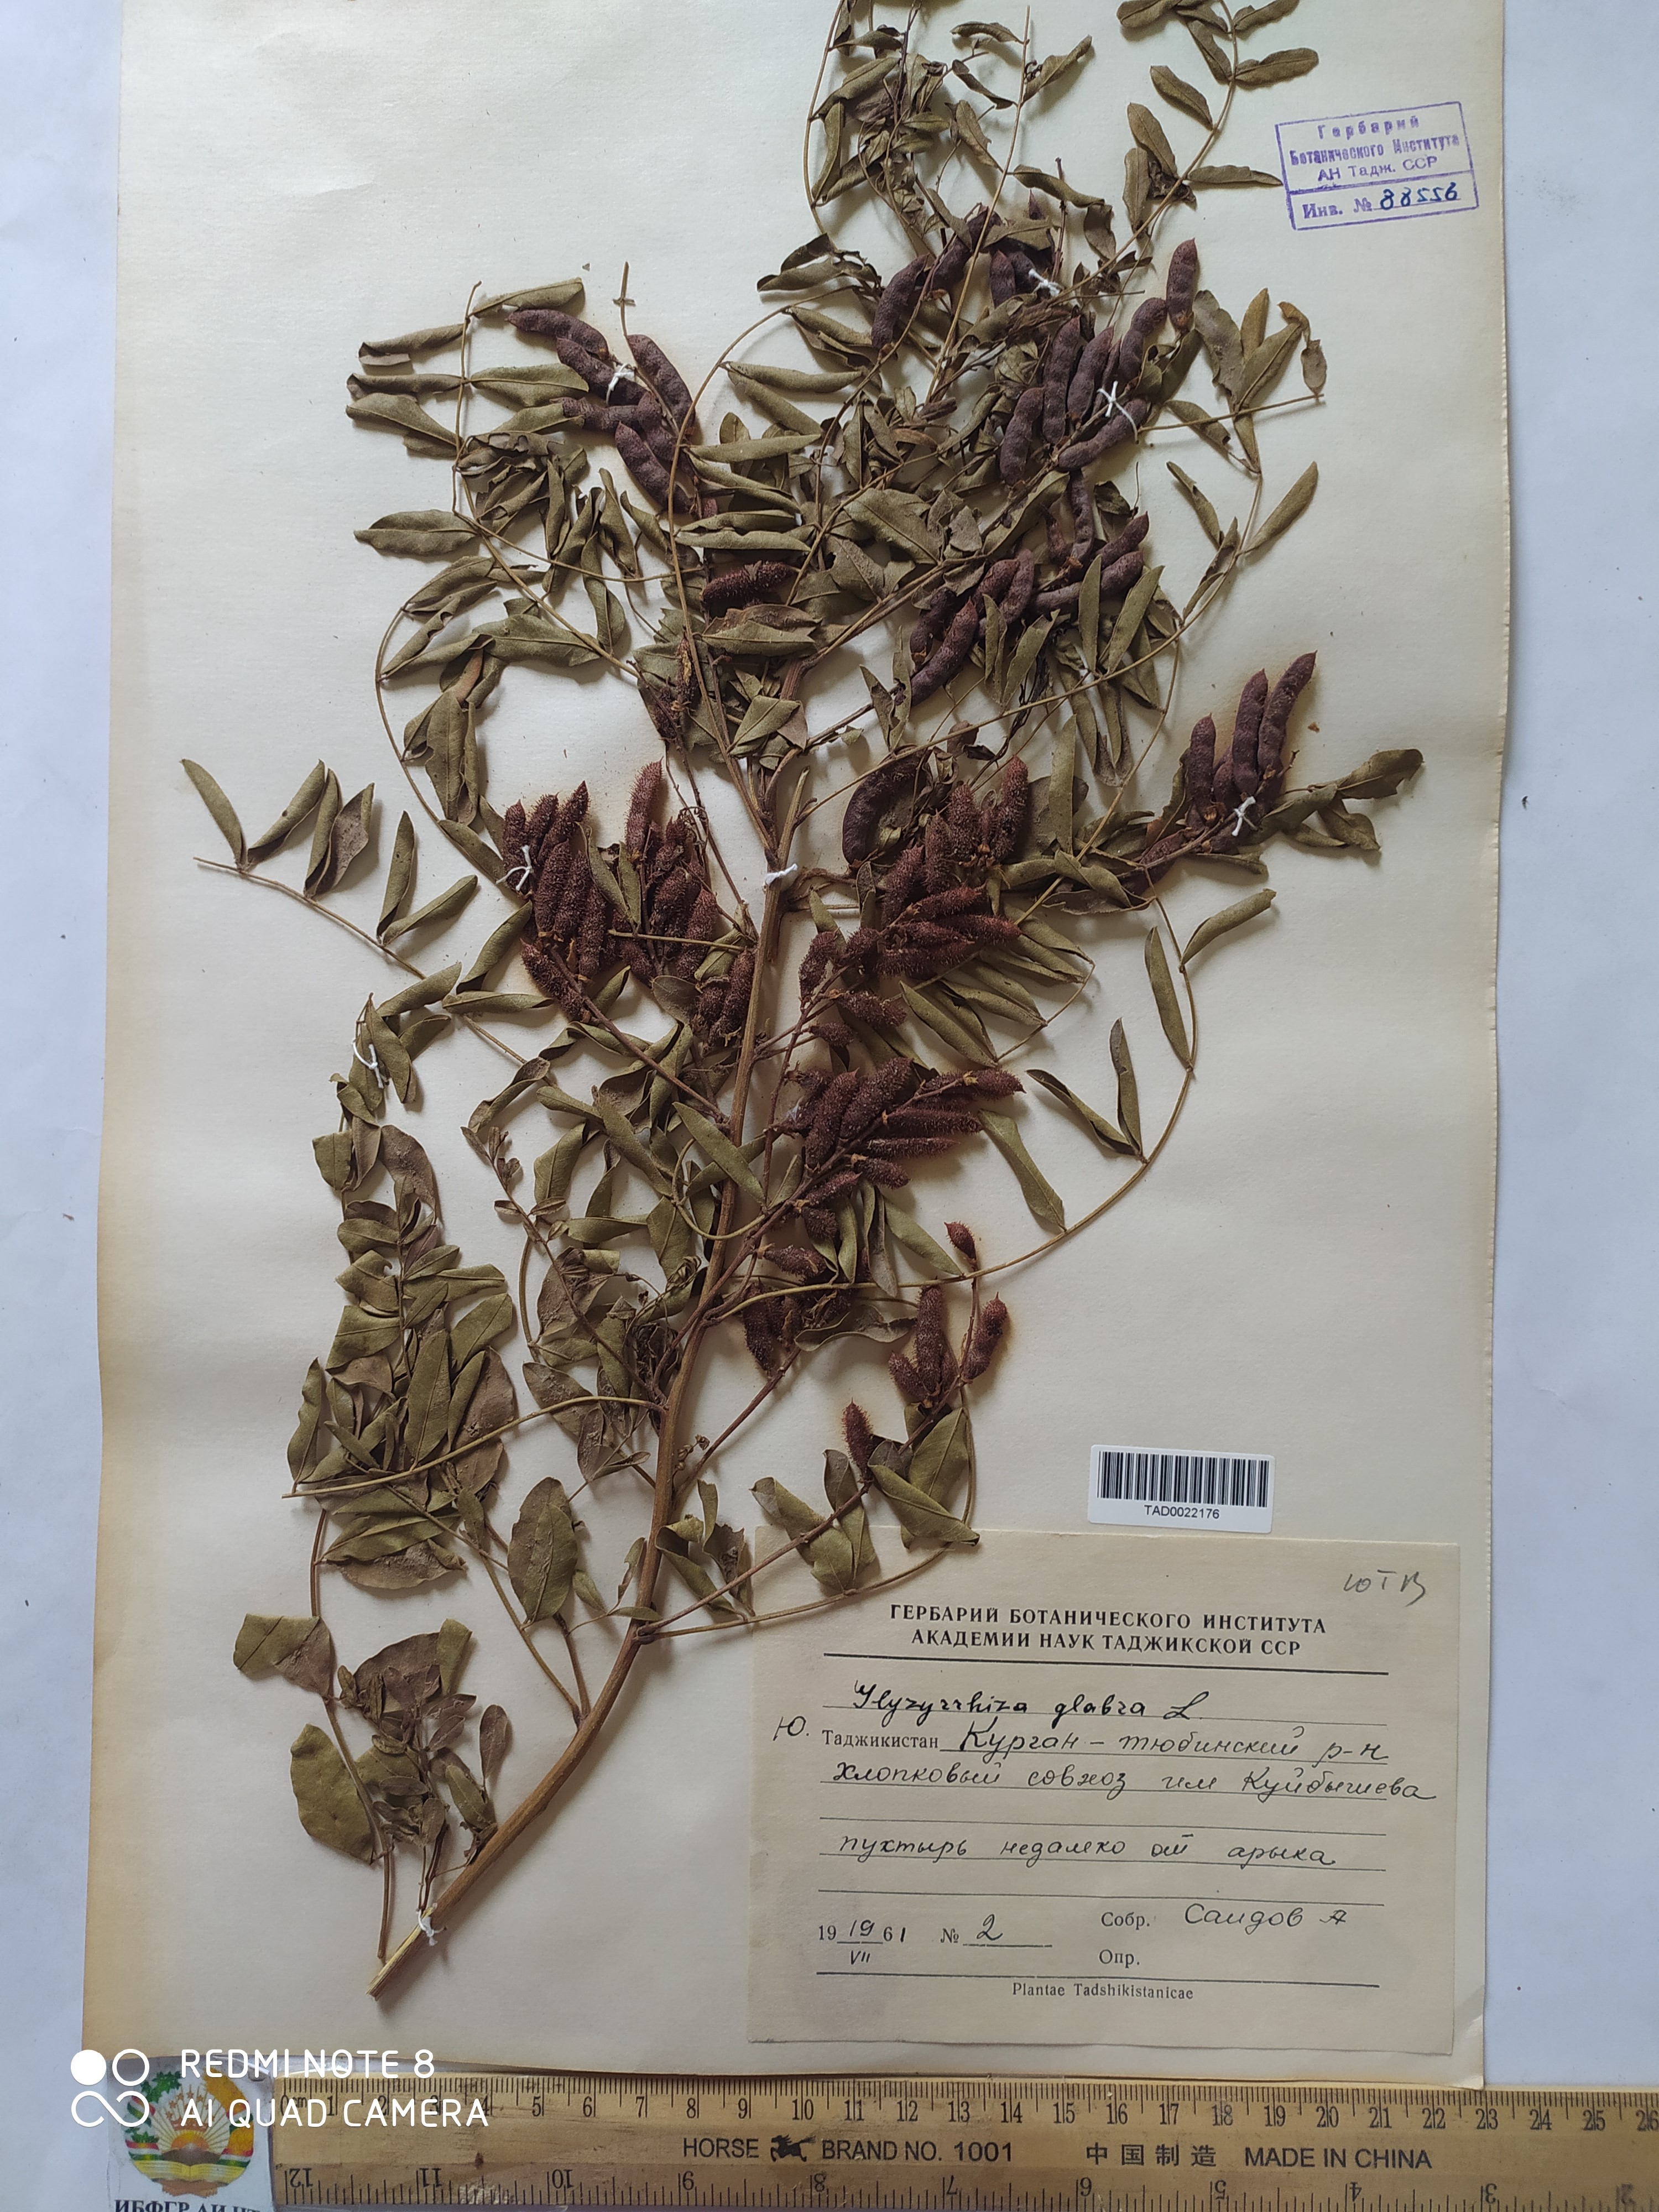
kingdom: Plantae
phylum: Tracheophyta
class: Magnoliopsida
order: Fabales
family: Fabaceae
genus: Glycyrrhiza
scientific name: Glycyrrhiza glabra
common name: Liquorice
